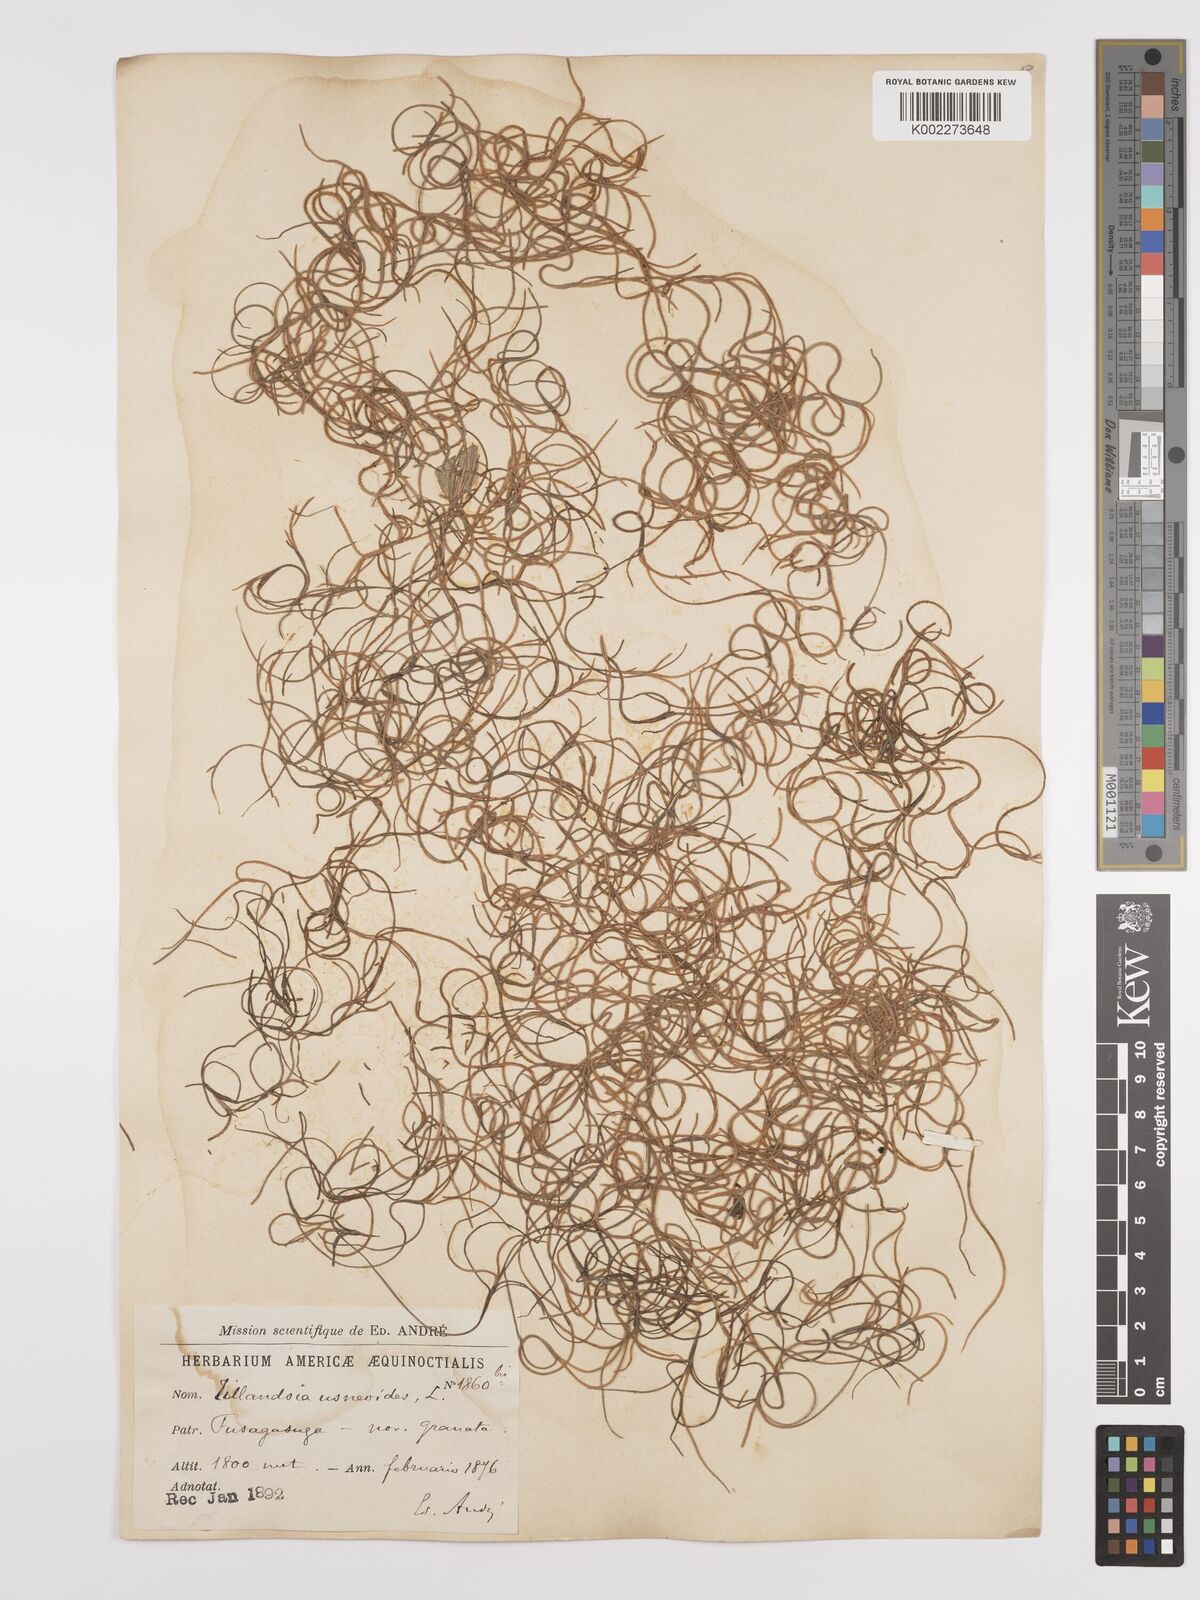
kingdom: Plantae
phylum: Tracheophyta
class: Liliopsida
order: Poales
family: Bromeliaceae
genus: Tillandsia
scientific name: Tillandsia usneoides
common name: Spanish moss
